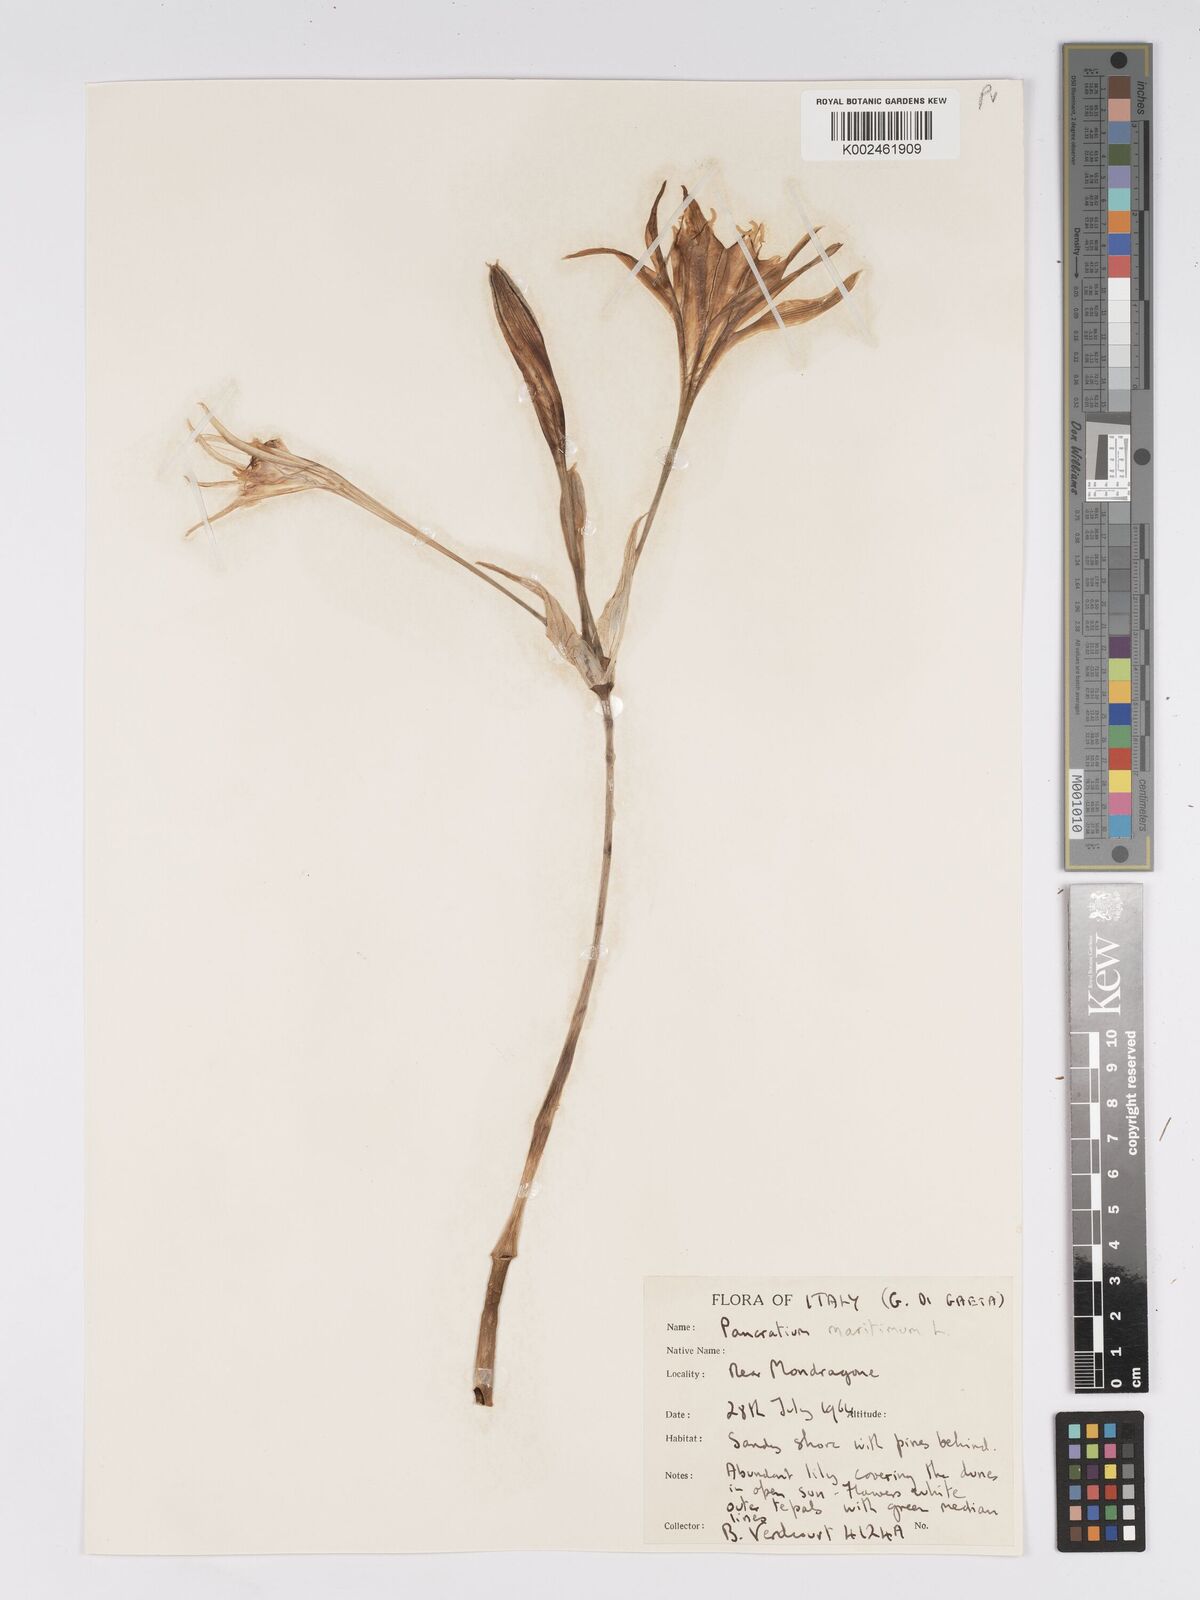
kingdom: Plantae
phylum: Tracheophyta
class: Liliopsida
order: Asparagales
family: Amaryllidaceae
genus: Pancratium
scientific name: Pancratium maritimum
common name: Sea-daffodil
